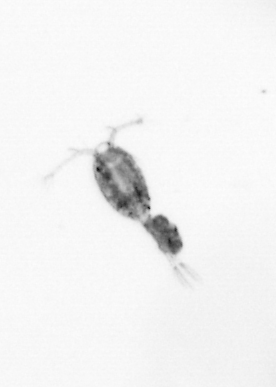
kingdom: Animalia
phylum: Arthropoda
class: Copepoda
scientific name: Copepoda
